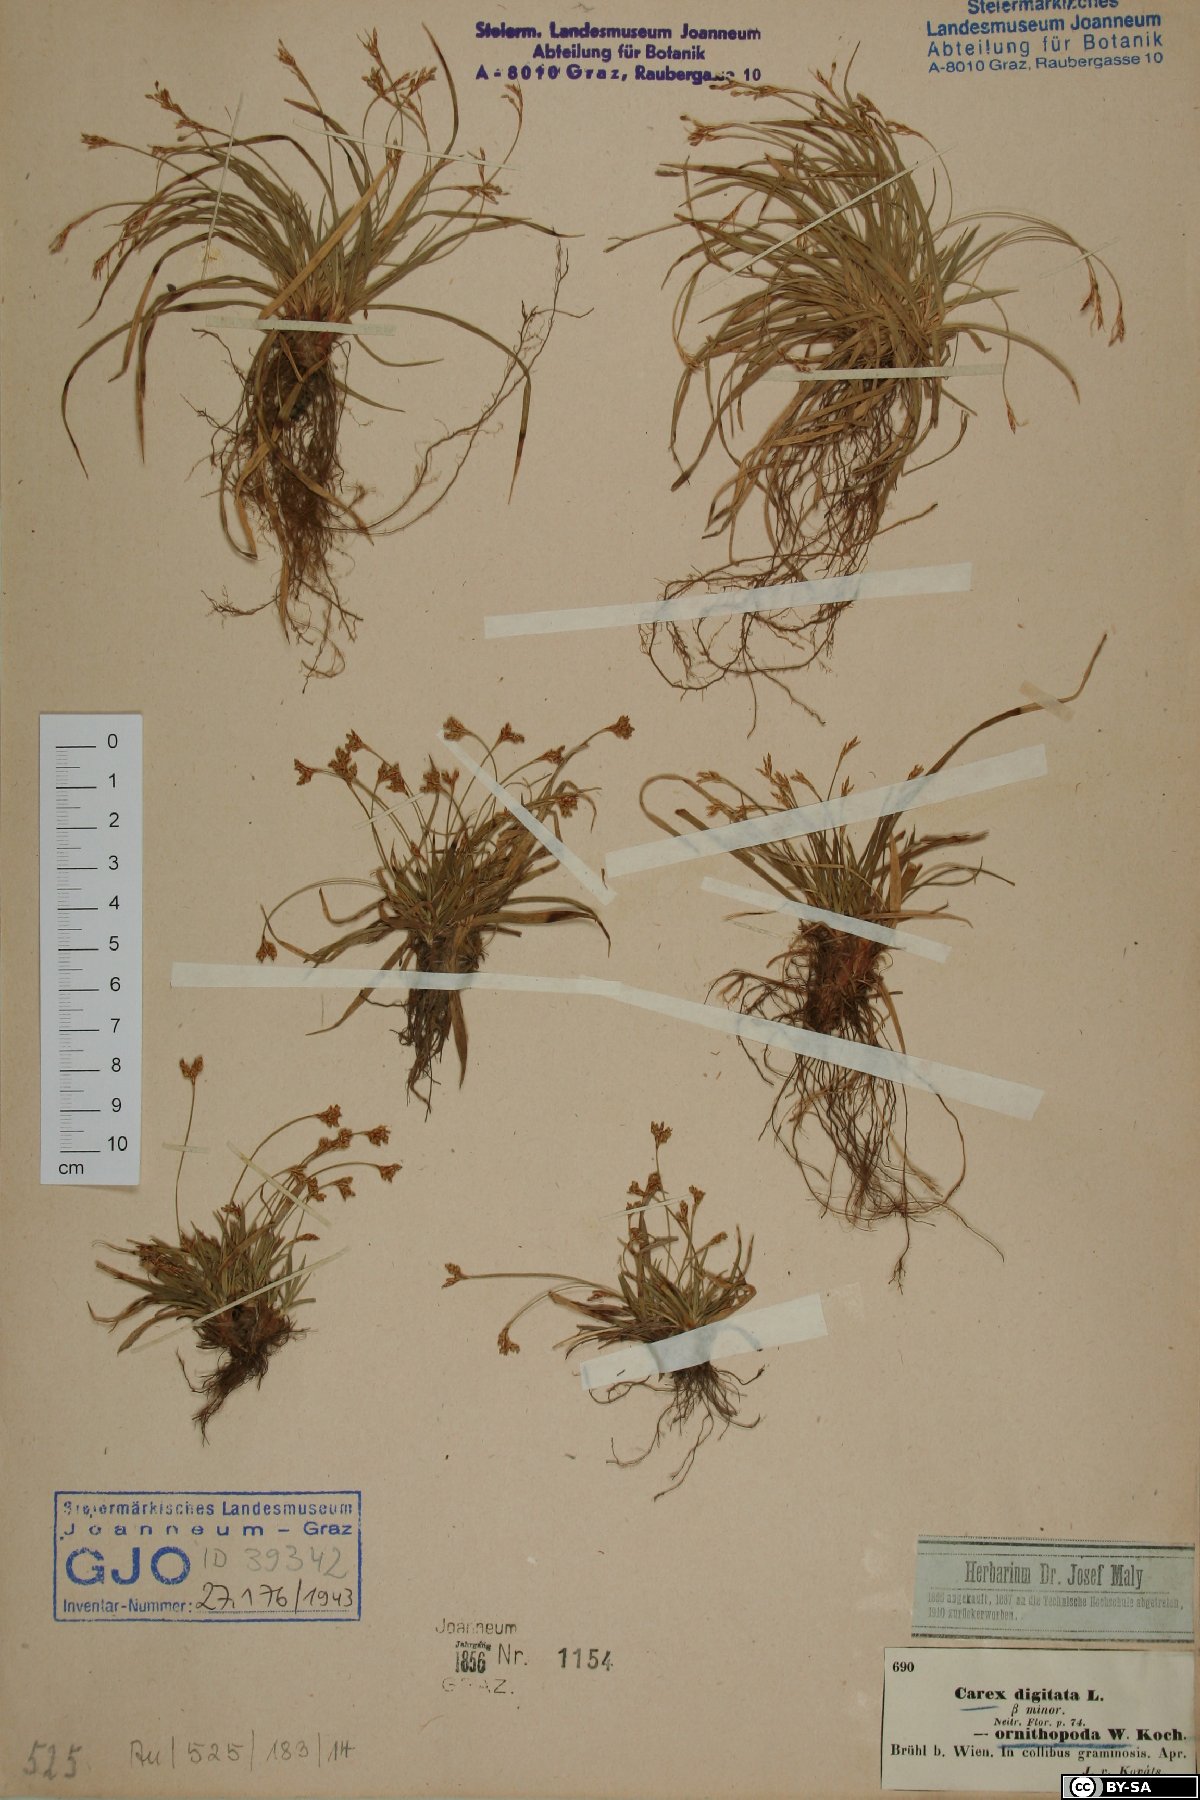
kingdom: Plantae
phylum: Tracheophyta
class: Liliopsida
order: Poales
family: Cyperaceae
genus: Carex
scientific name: Carex digitata
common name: Fingered sedge
